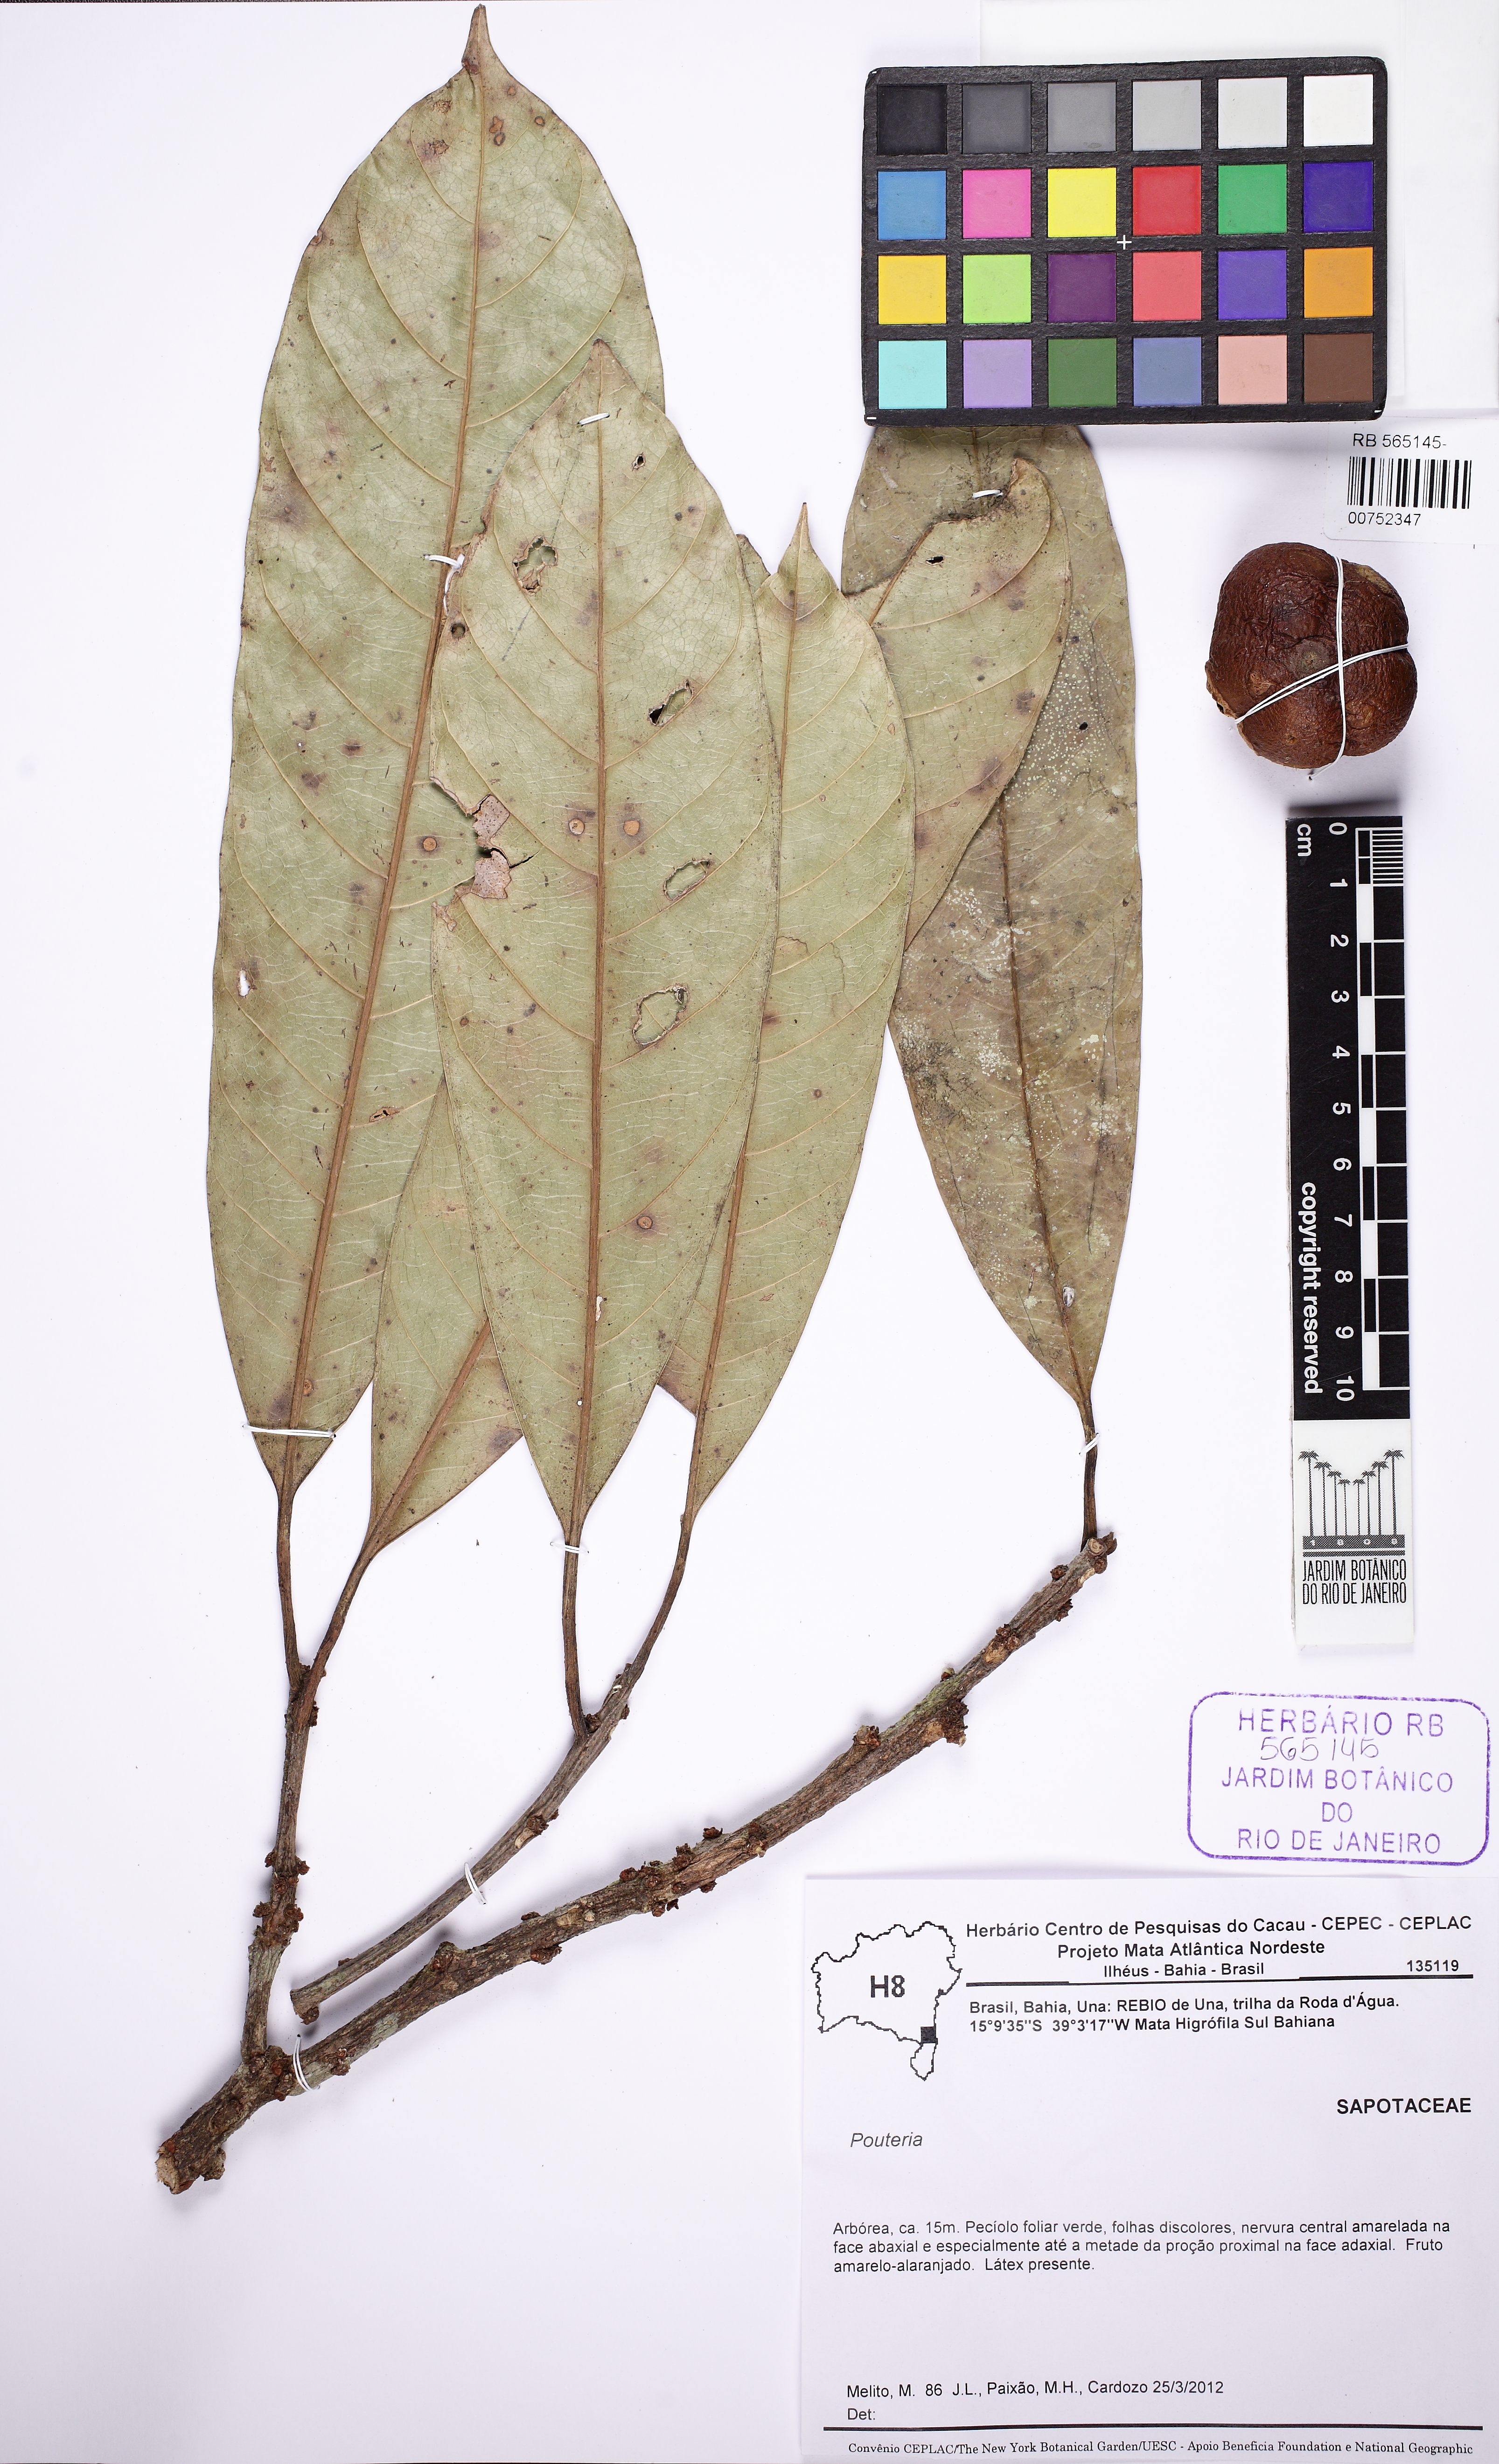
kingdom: Plantae
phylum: Tracheophyta
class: Magnoliopsida
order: Ericales
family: Sapotaceae
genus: Pouteria
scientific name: Pouteria trifida
